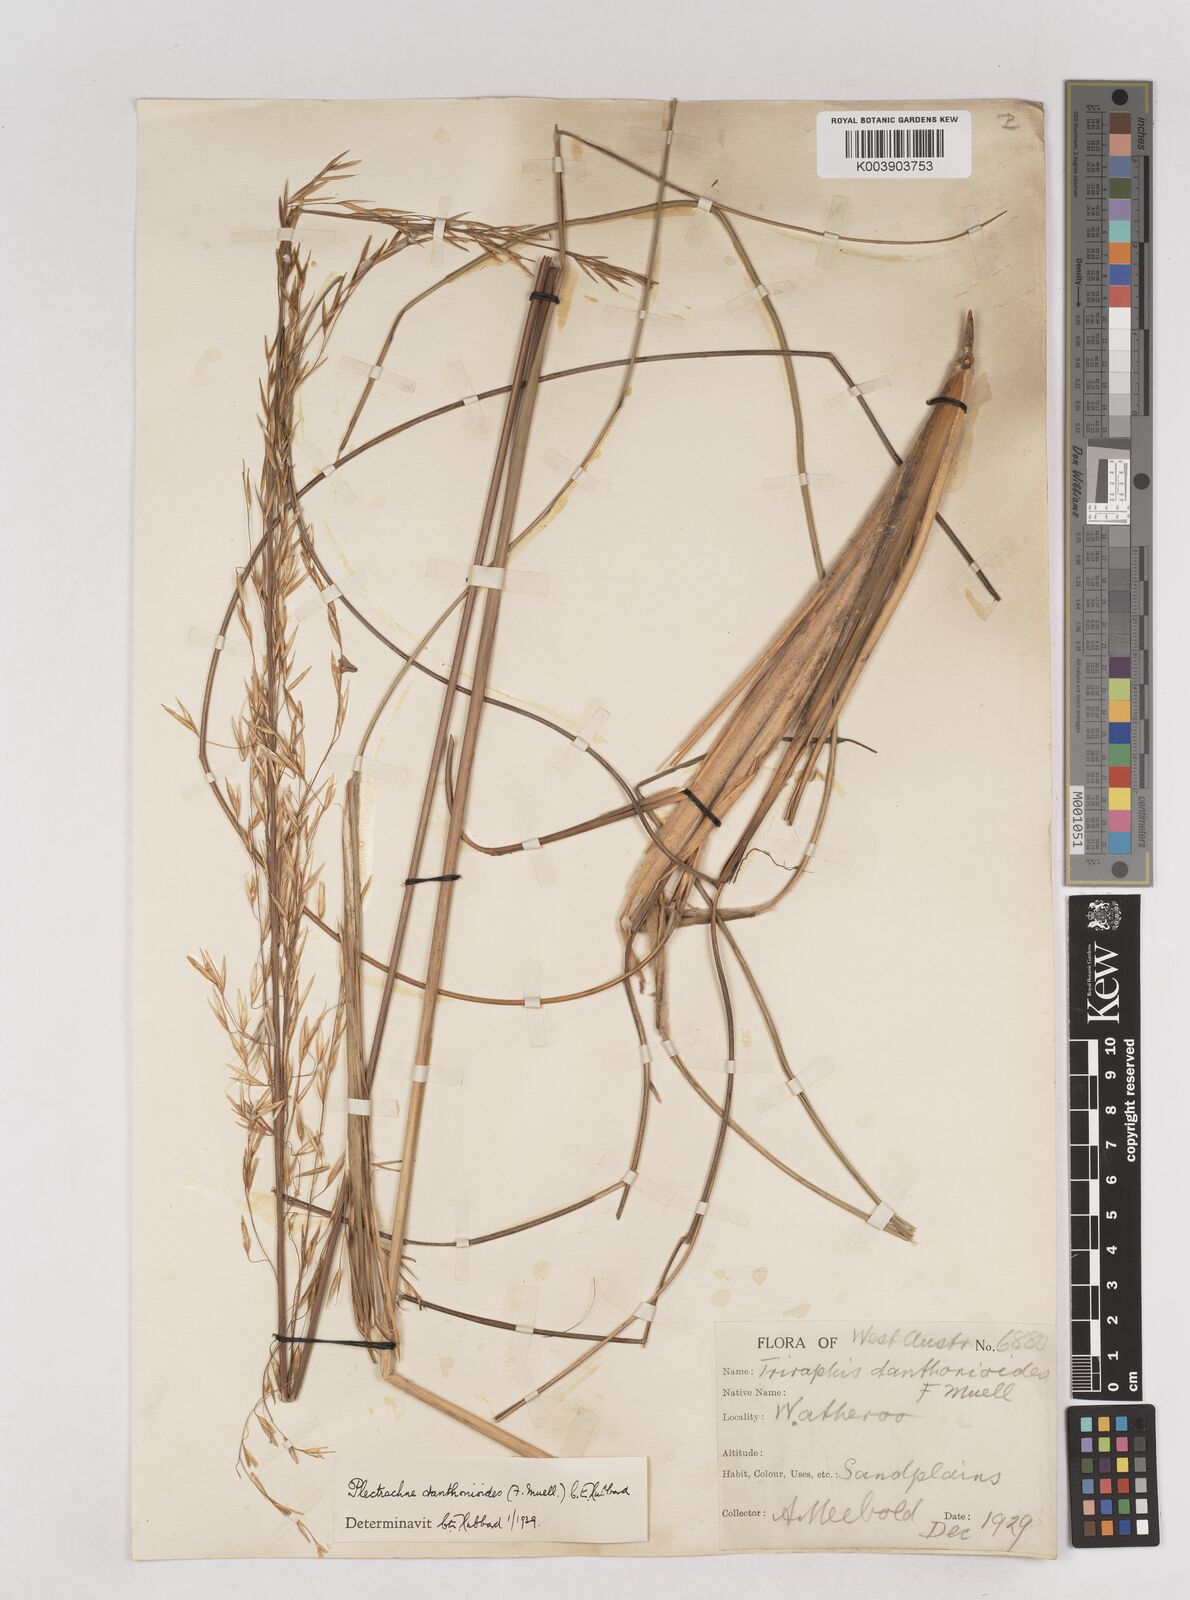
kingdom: Plantae
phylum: Tracheophyta
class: Liliopsida
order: Poales
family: Poaceae
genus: Triodia
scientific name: Triodia danthonioides
